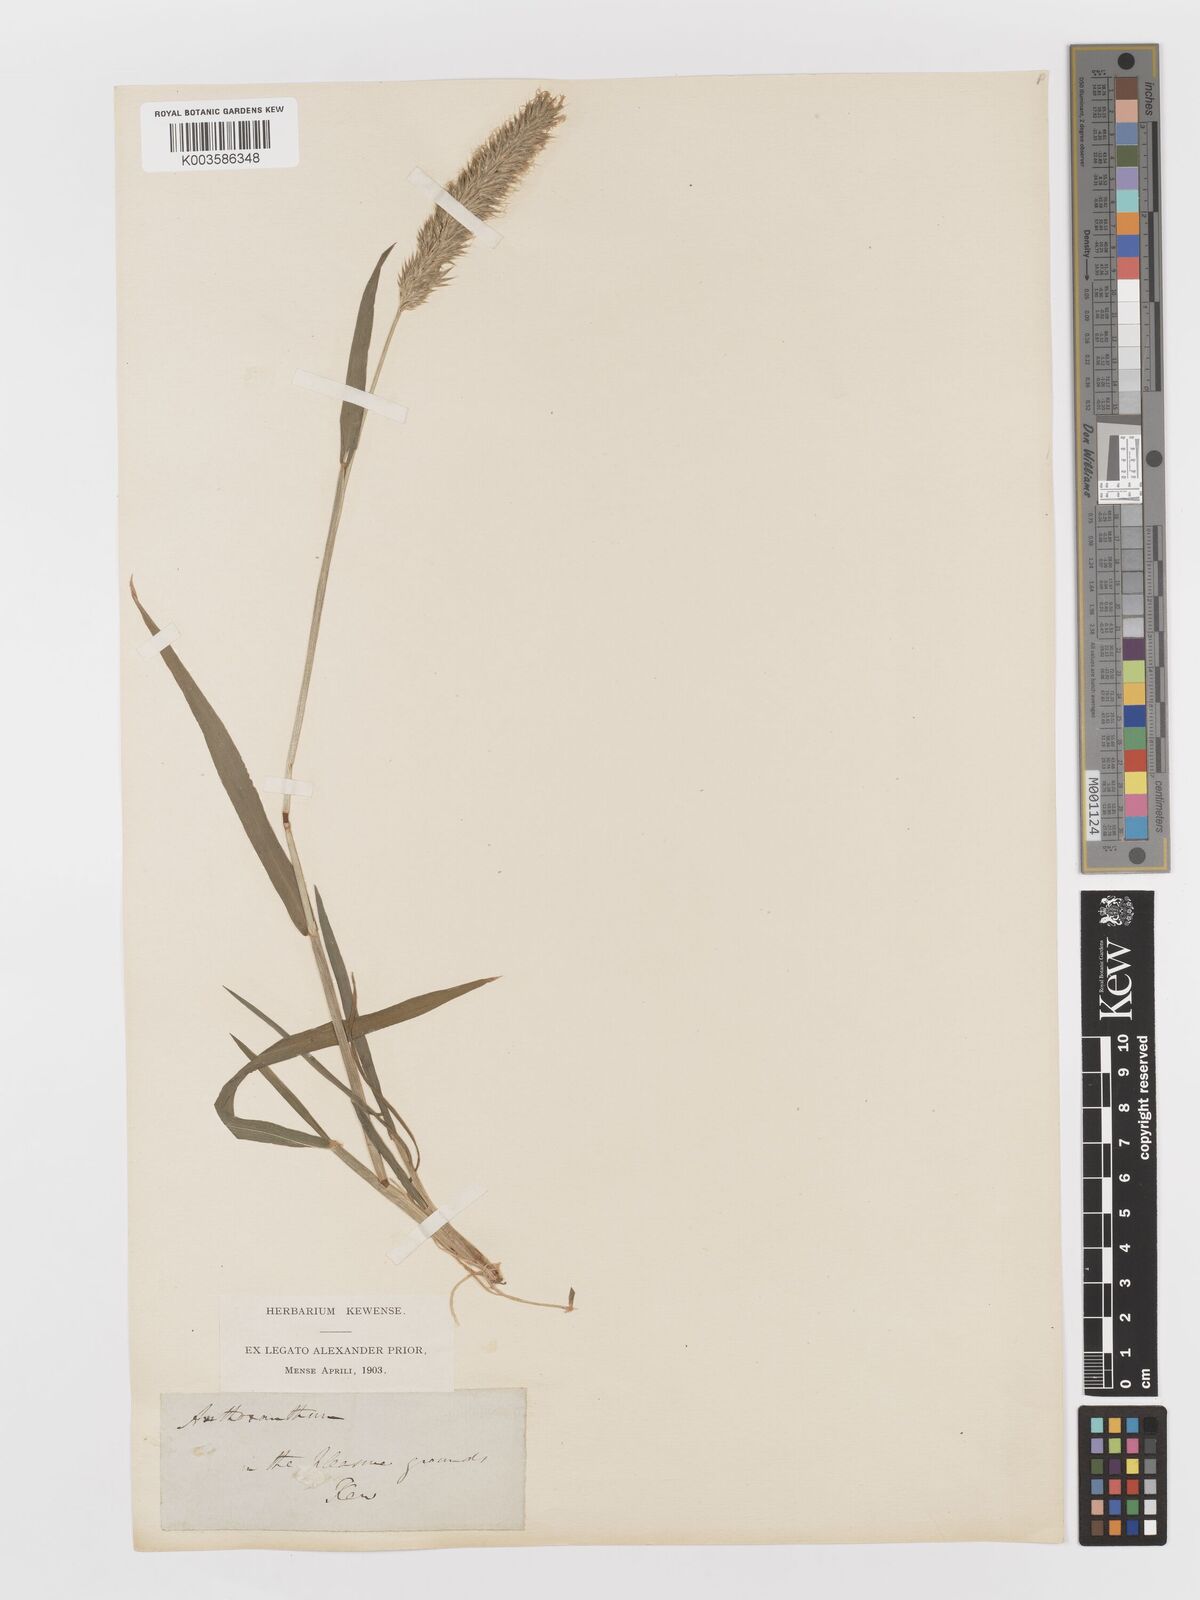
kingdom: Plantae
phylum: Tracheophyta
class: Liliopsida
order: Poales
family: Poaceae
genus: Anthoxanthum
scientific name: Anthoxanthum odoratum
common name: Sweet vernalgrass
